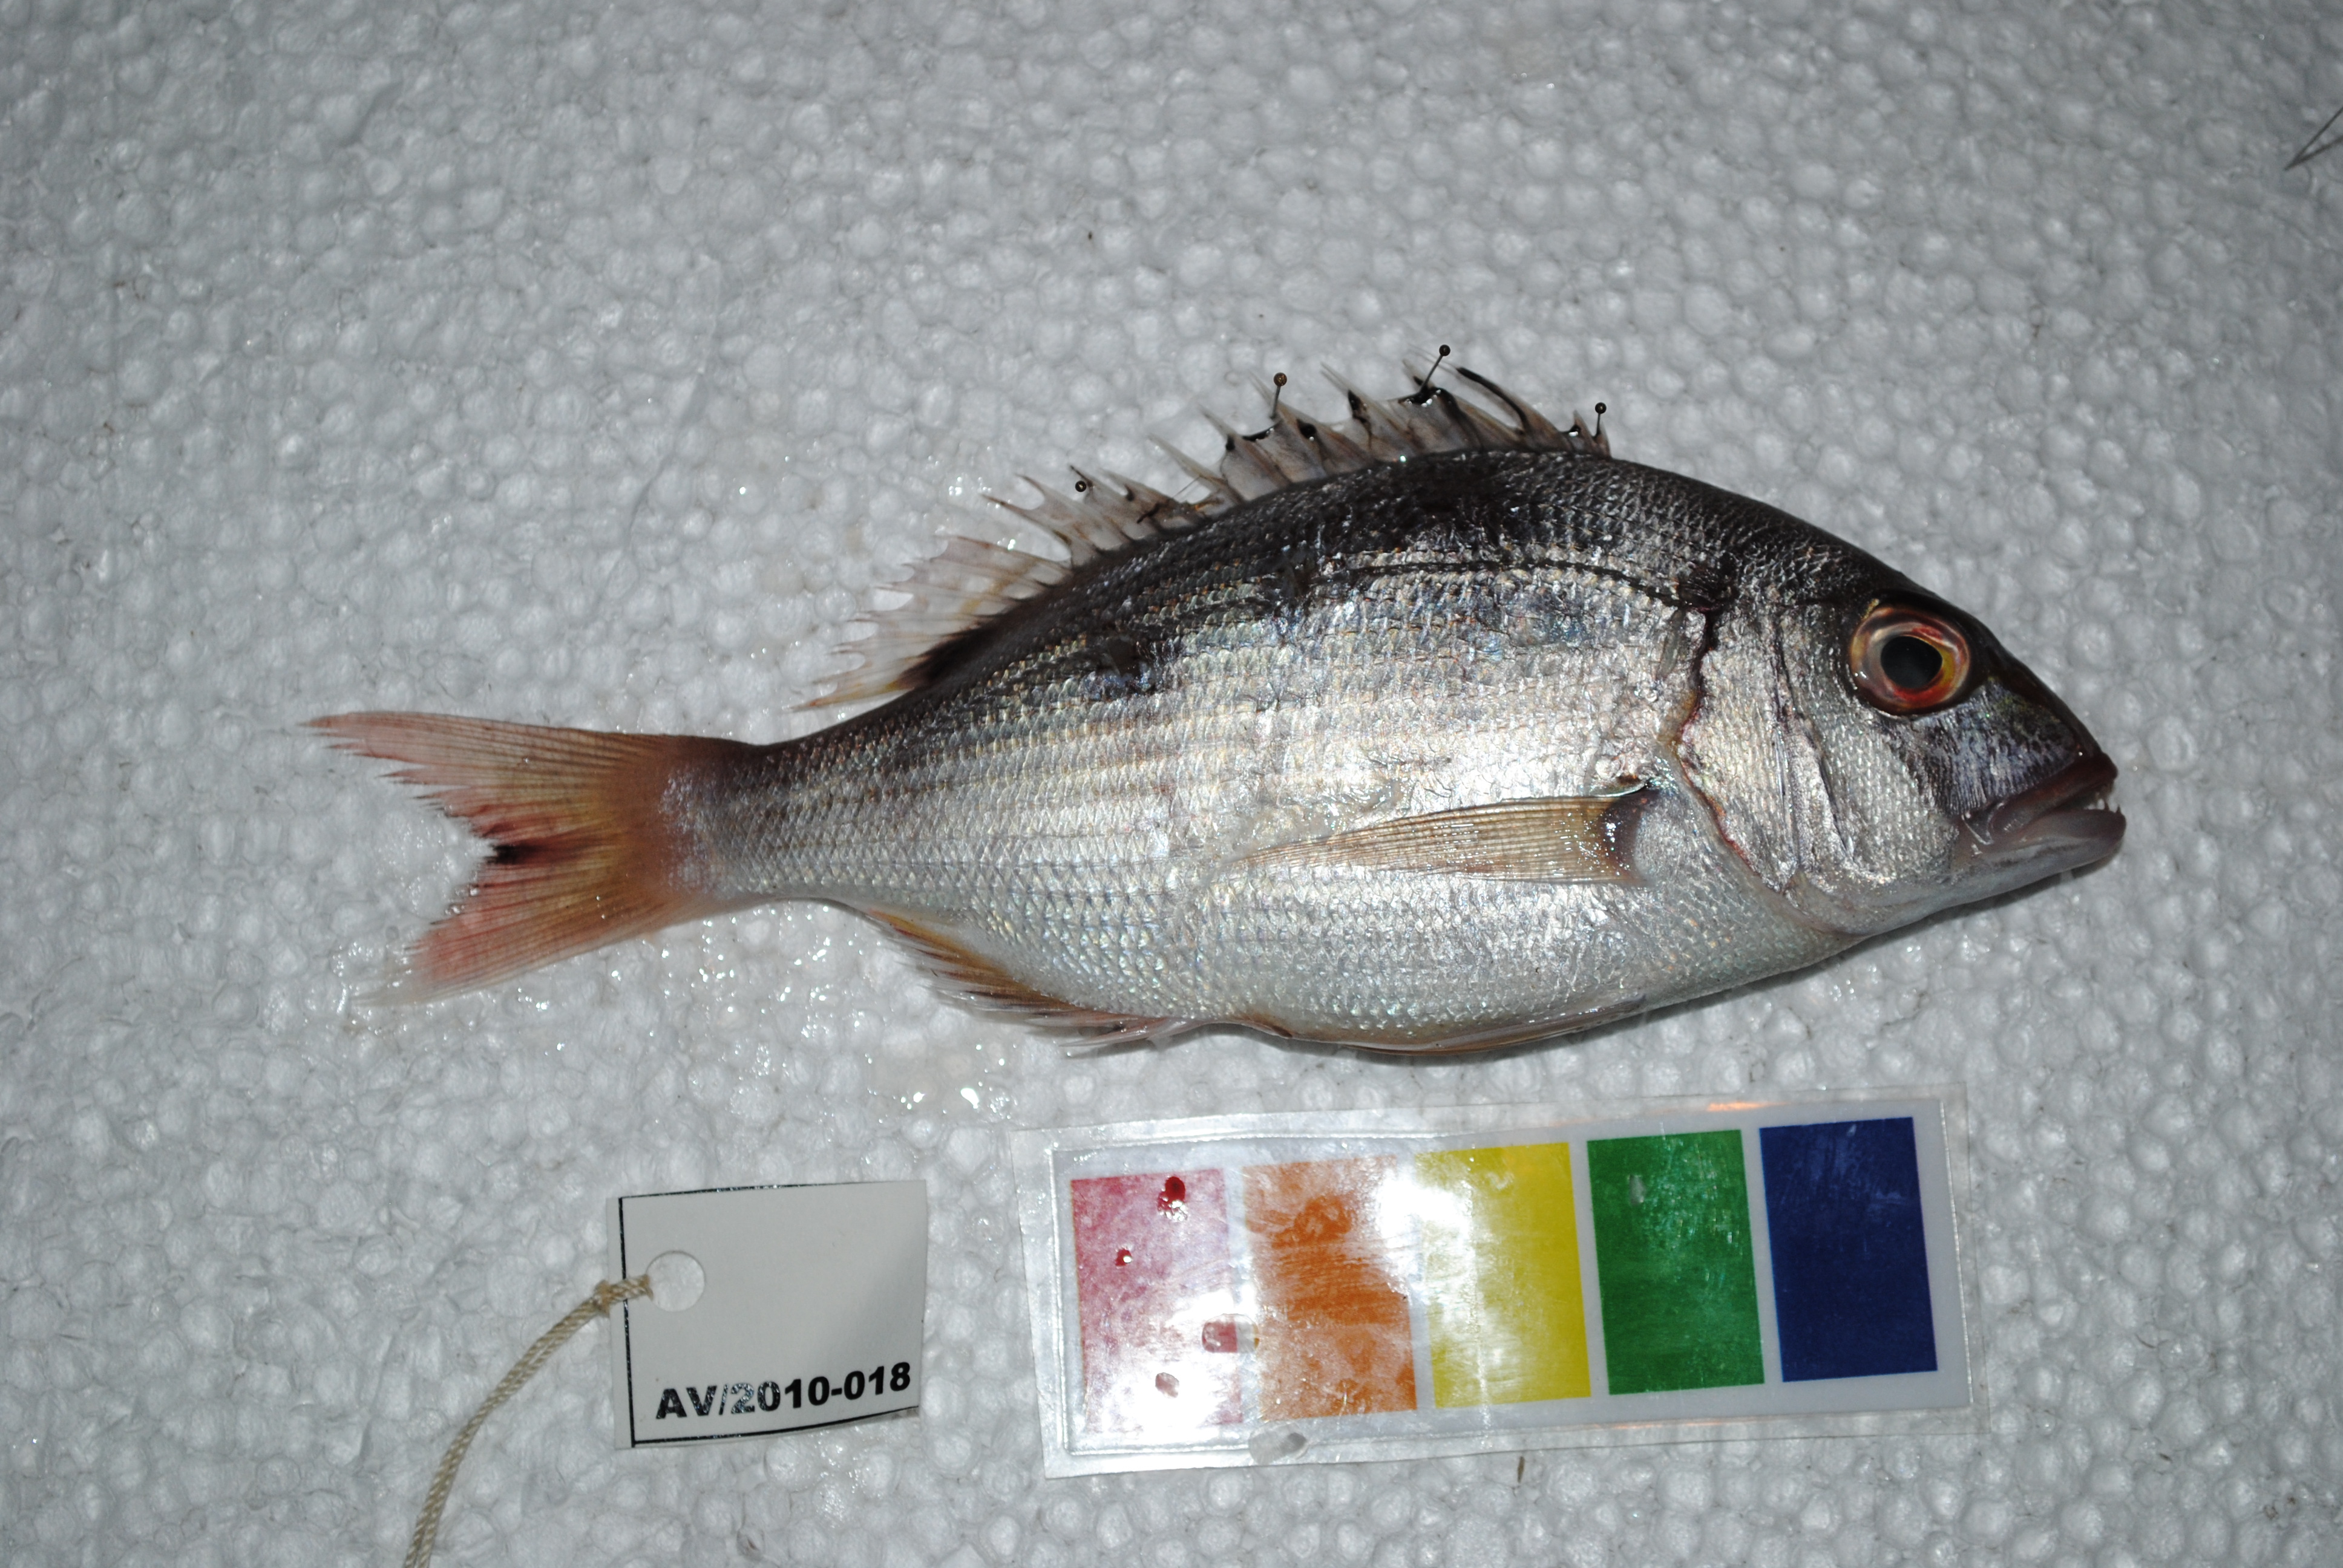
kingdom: Animalia
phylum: Chordata
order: Perciformes
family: Sparidae
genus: Cheimerius
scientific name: Cheimerius nufar
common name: Soldier
